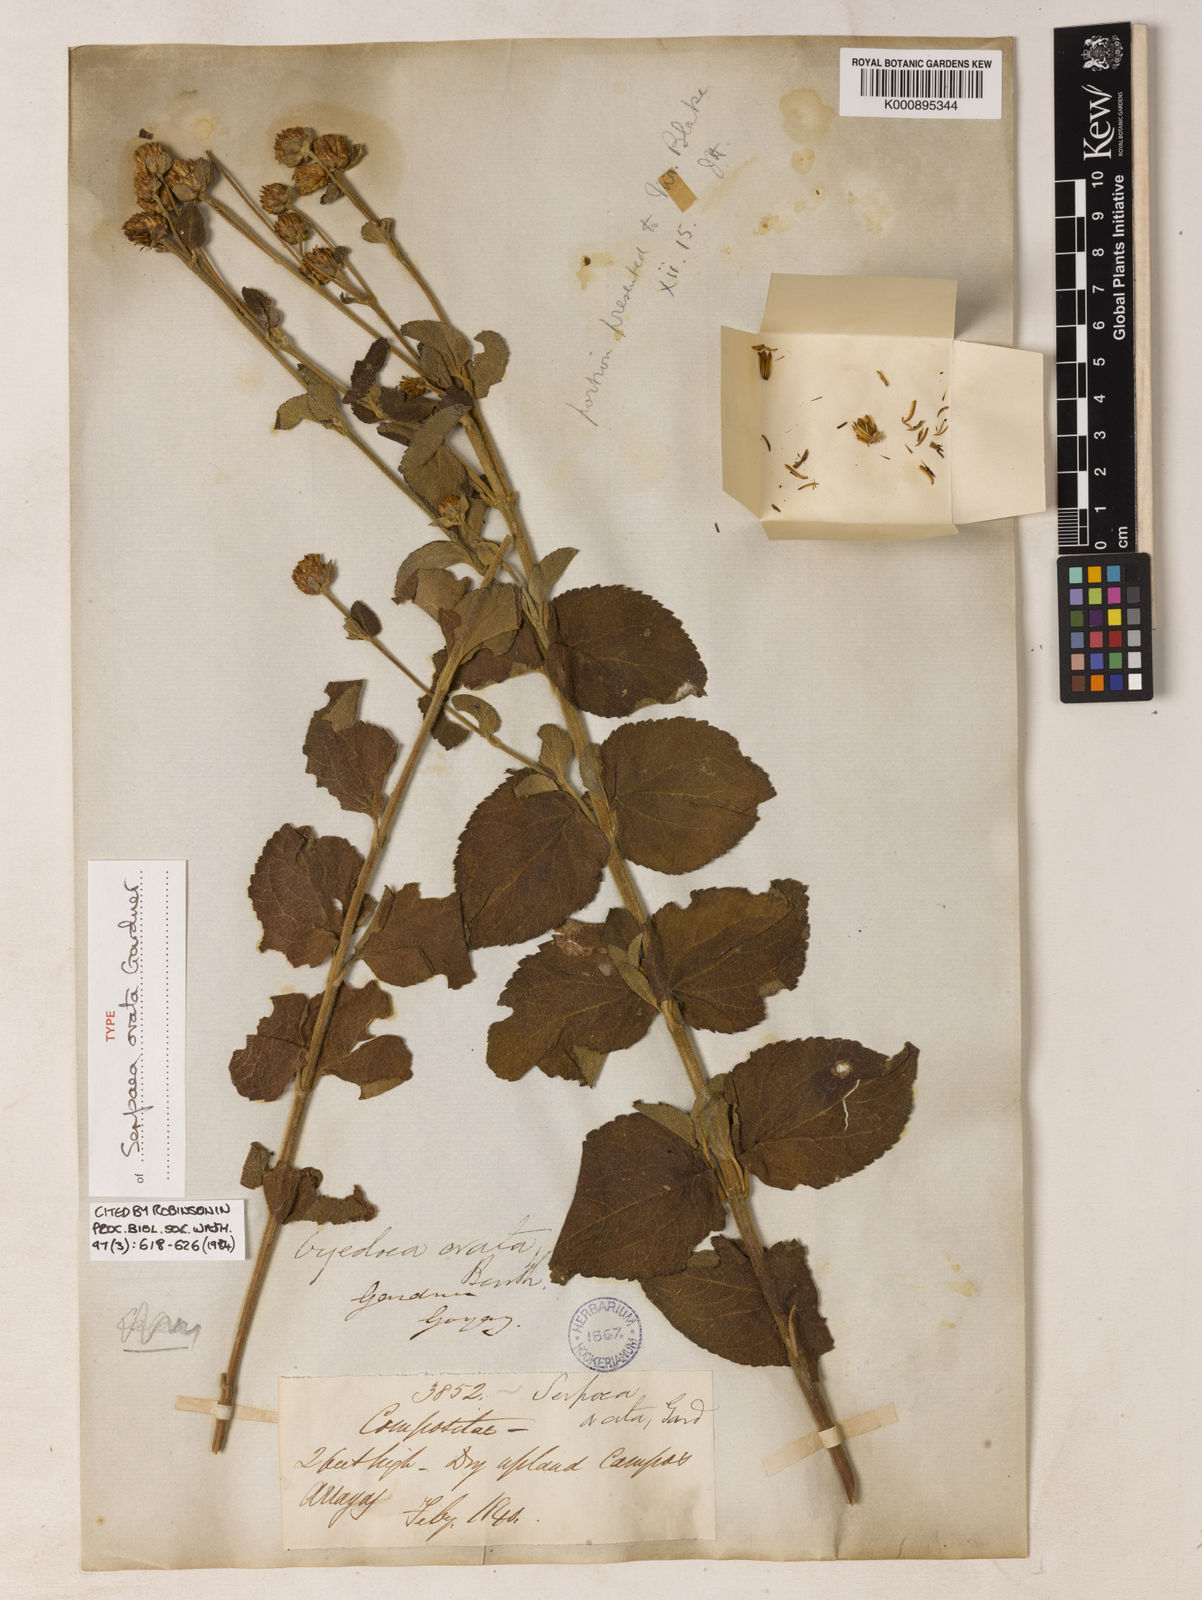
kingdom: Plantae
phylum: Tracheophyta
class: Magnoliopsida
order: Asterales
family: Asteraceae
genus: Dimerostemma
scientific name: Dimerostemma brasilianum
